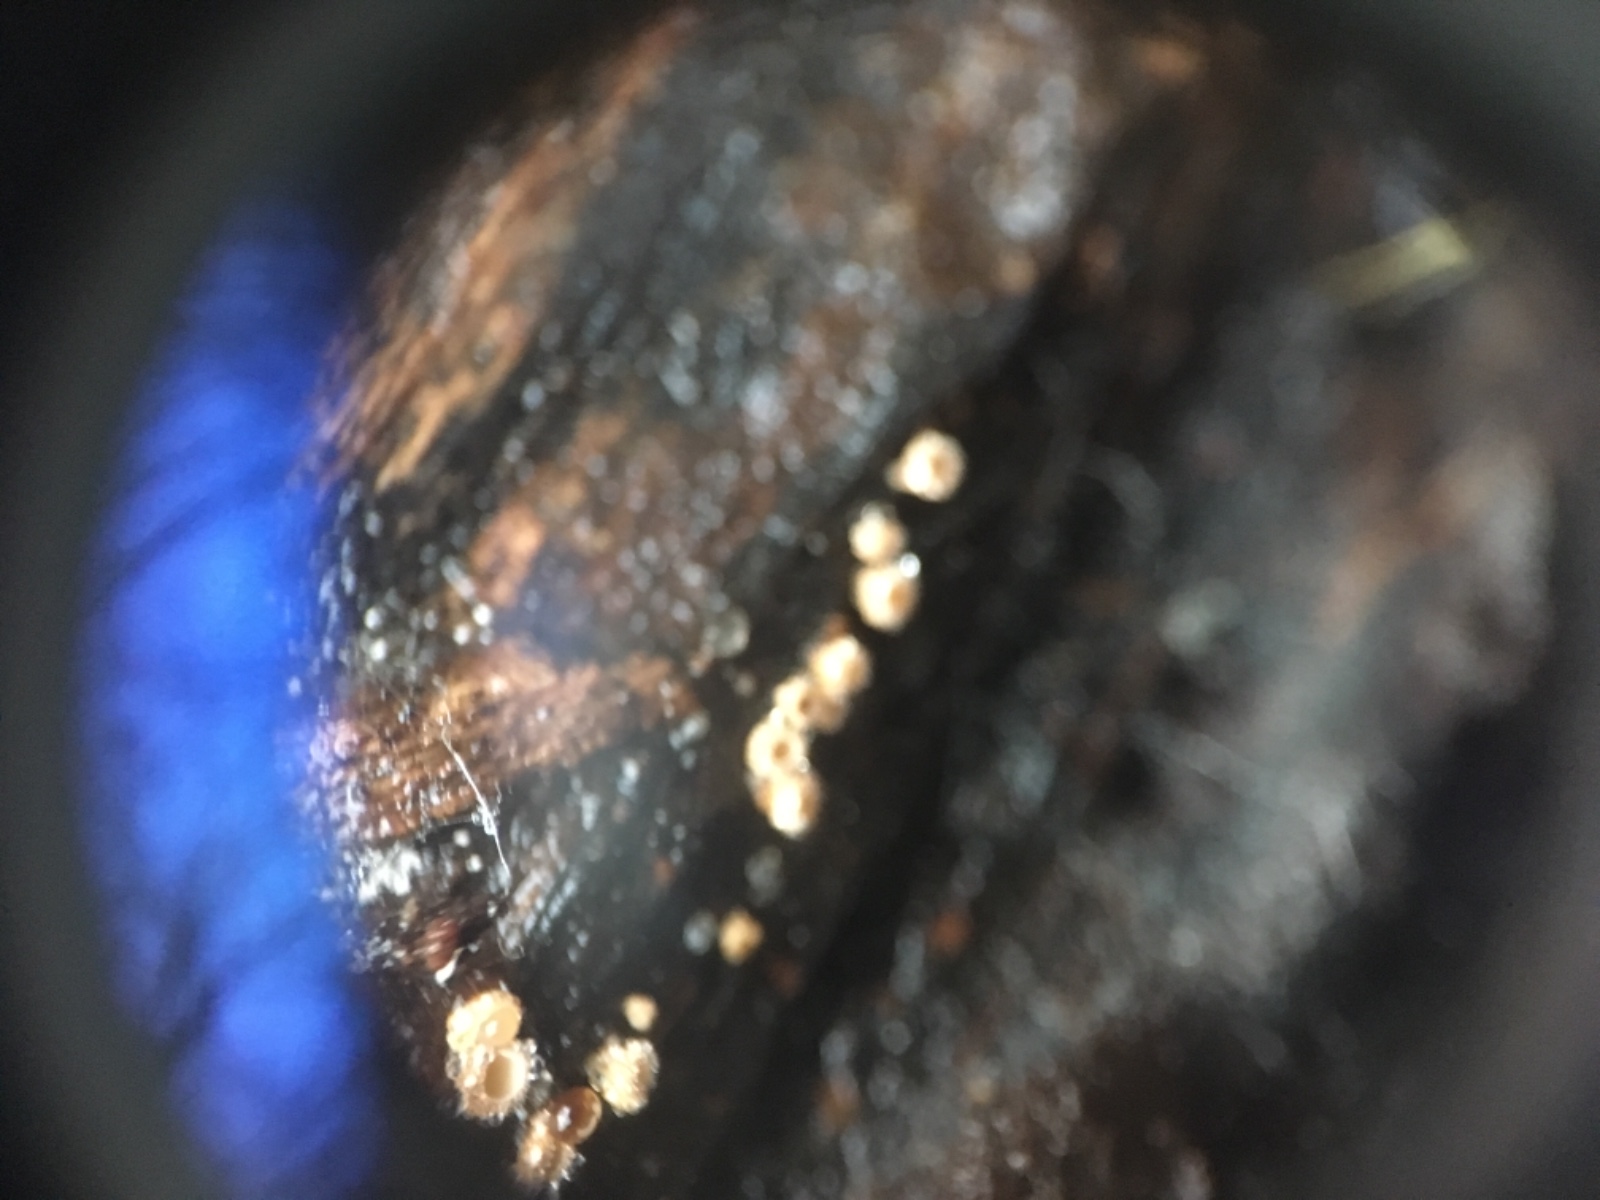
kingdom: Fungi
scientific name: Fungi
